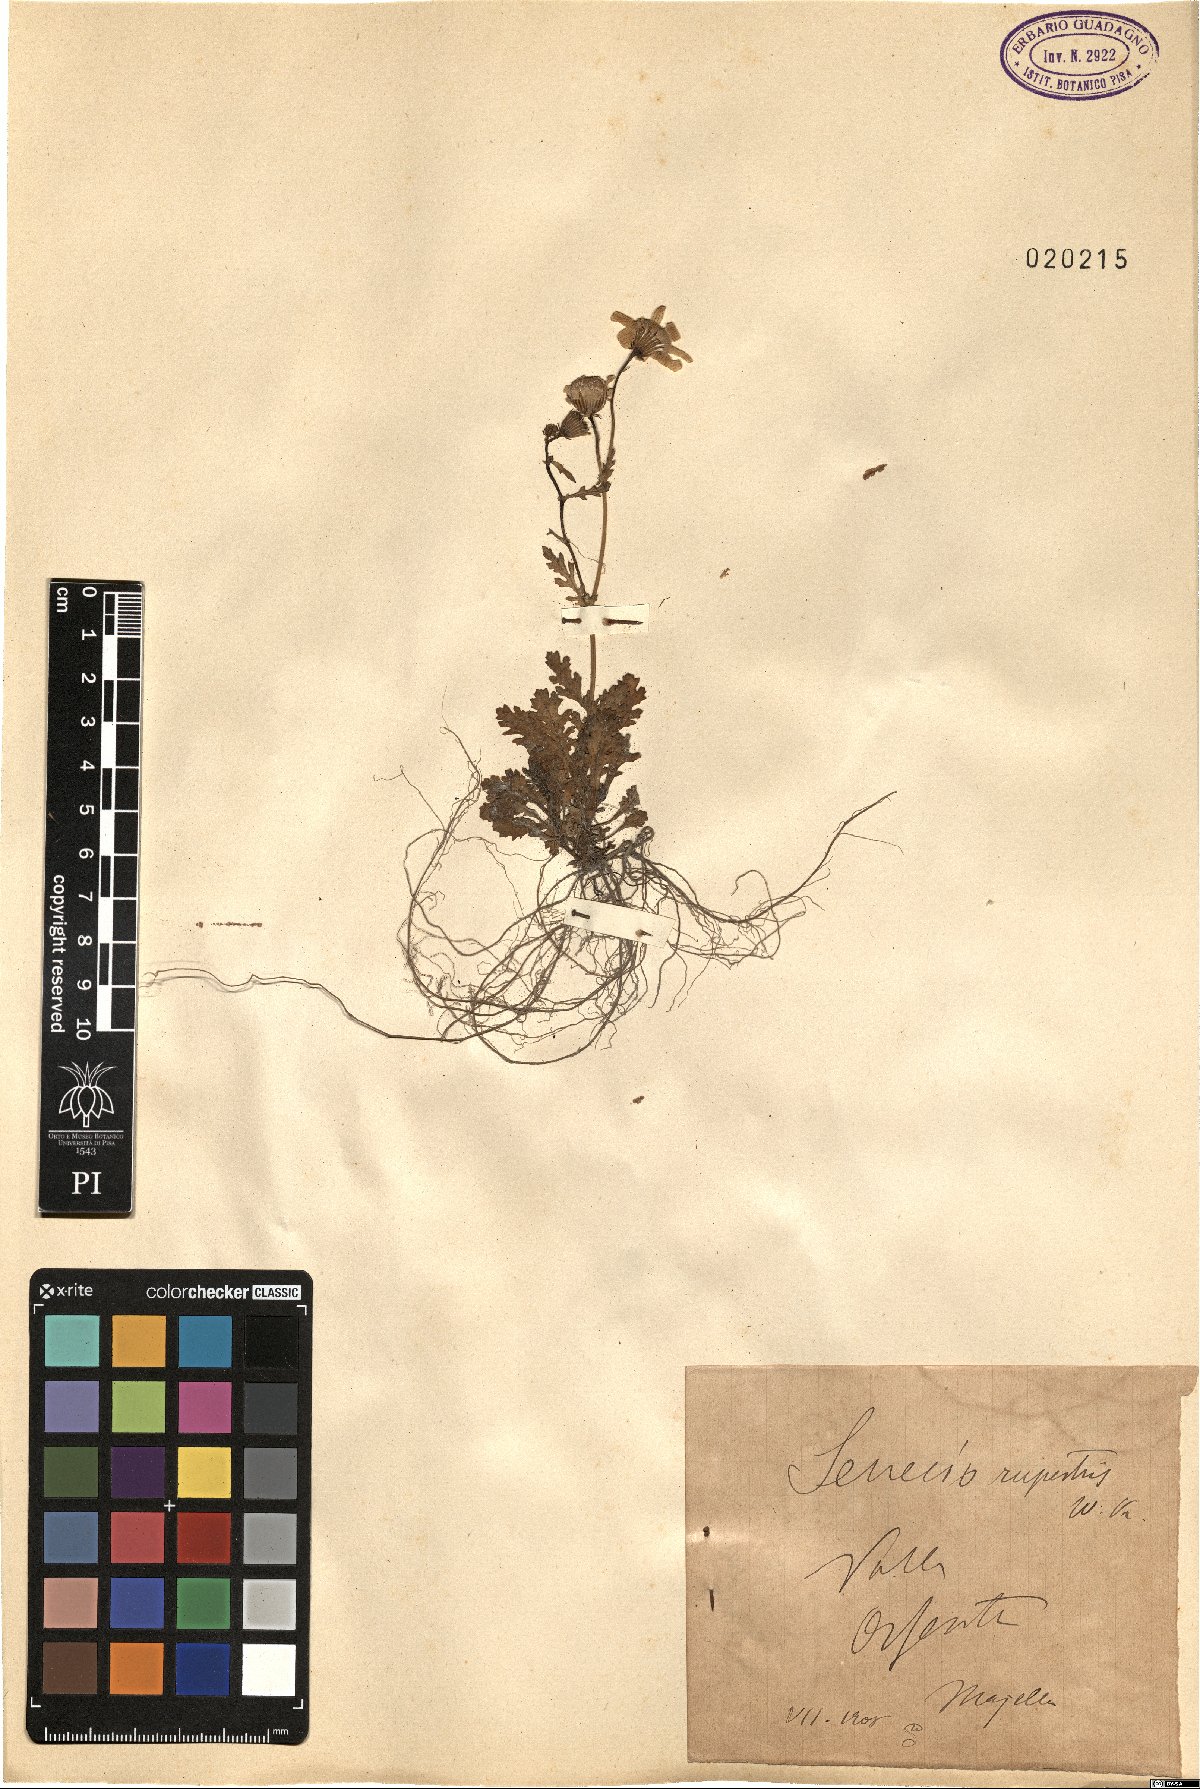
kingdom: Plantae
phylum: Tracheophyta
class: Magnoliopsida
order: Asterales
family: Asteraceae
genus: Senecio
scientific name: Senecio rupestris
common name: Rock ragwort
